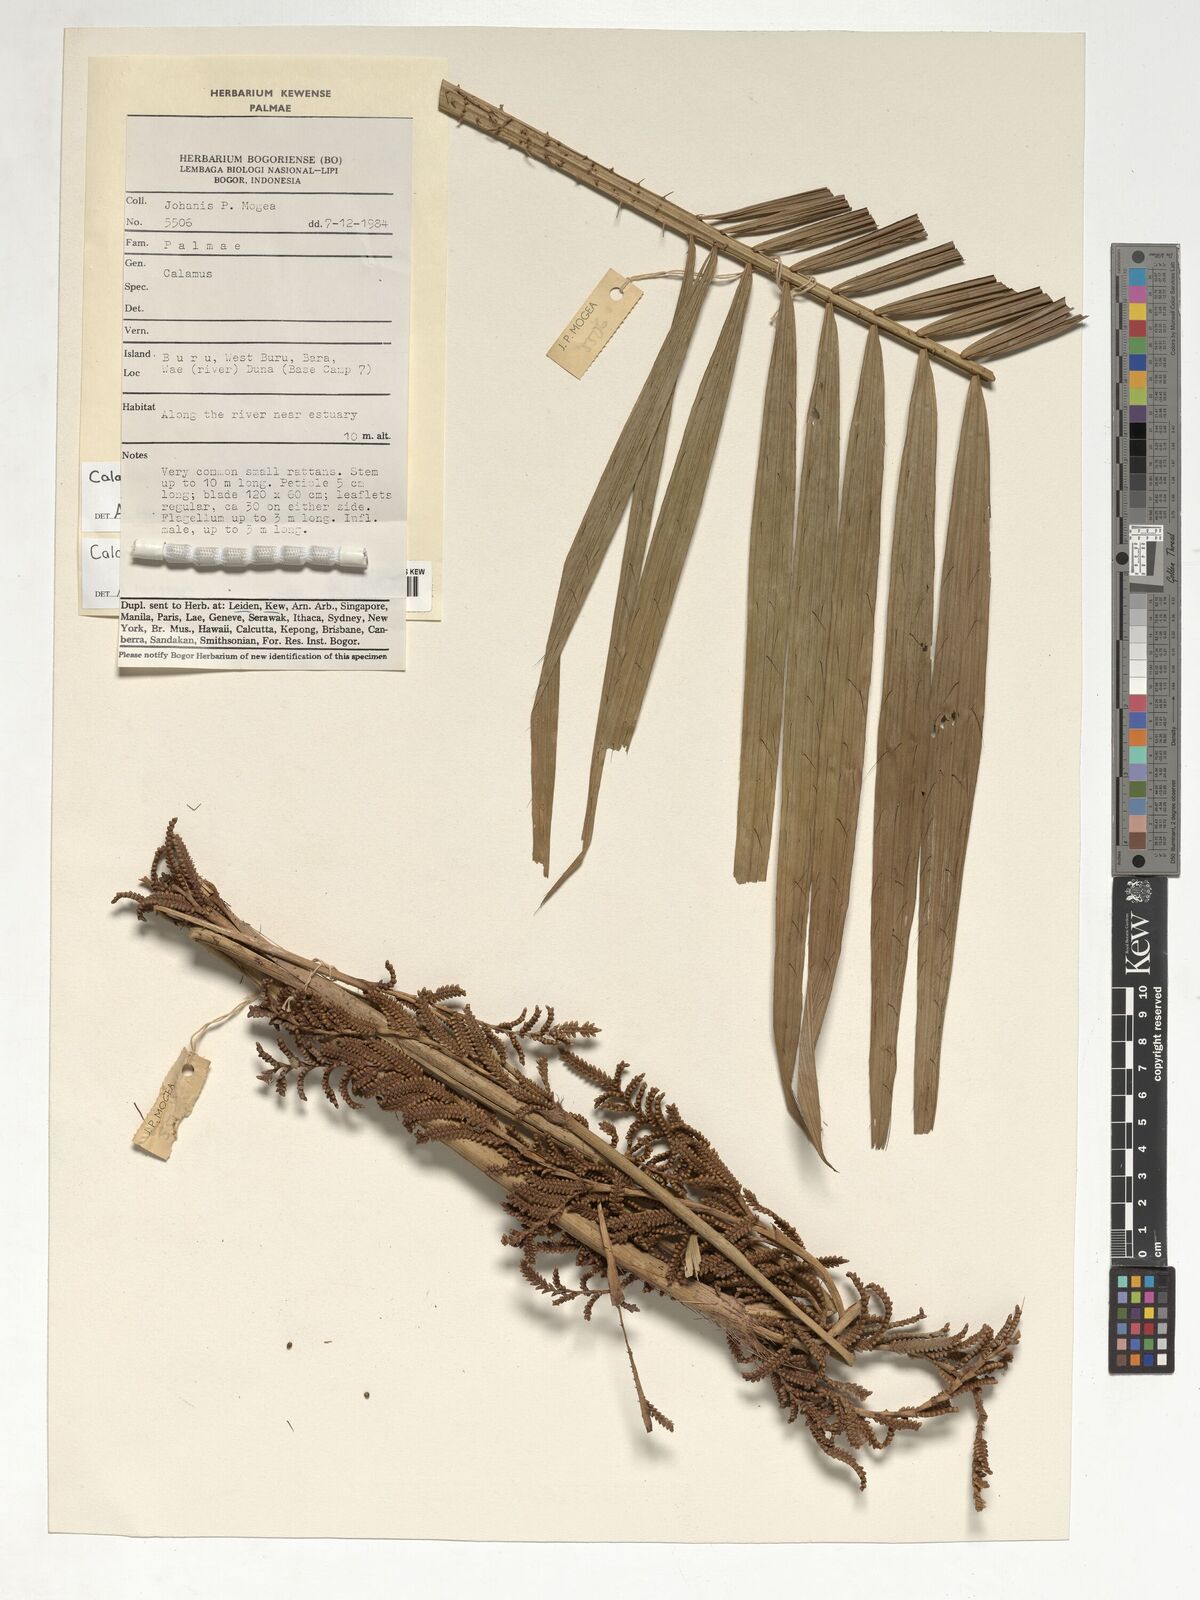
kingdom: Plantae
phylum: Tracheophyta
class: Liliopsida
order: Arecales
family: Arecaceae
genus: Calamus
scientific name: Calamus pseudomollis
